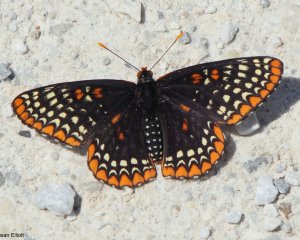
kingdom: Animalia
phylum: Arthropoda
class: Insecta
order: Lepidoptera
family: Nymphalidae
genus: Euphydryas
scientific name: Euphydryas phaeton
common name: Baltimore Checkerspot
